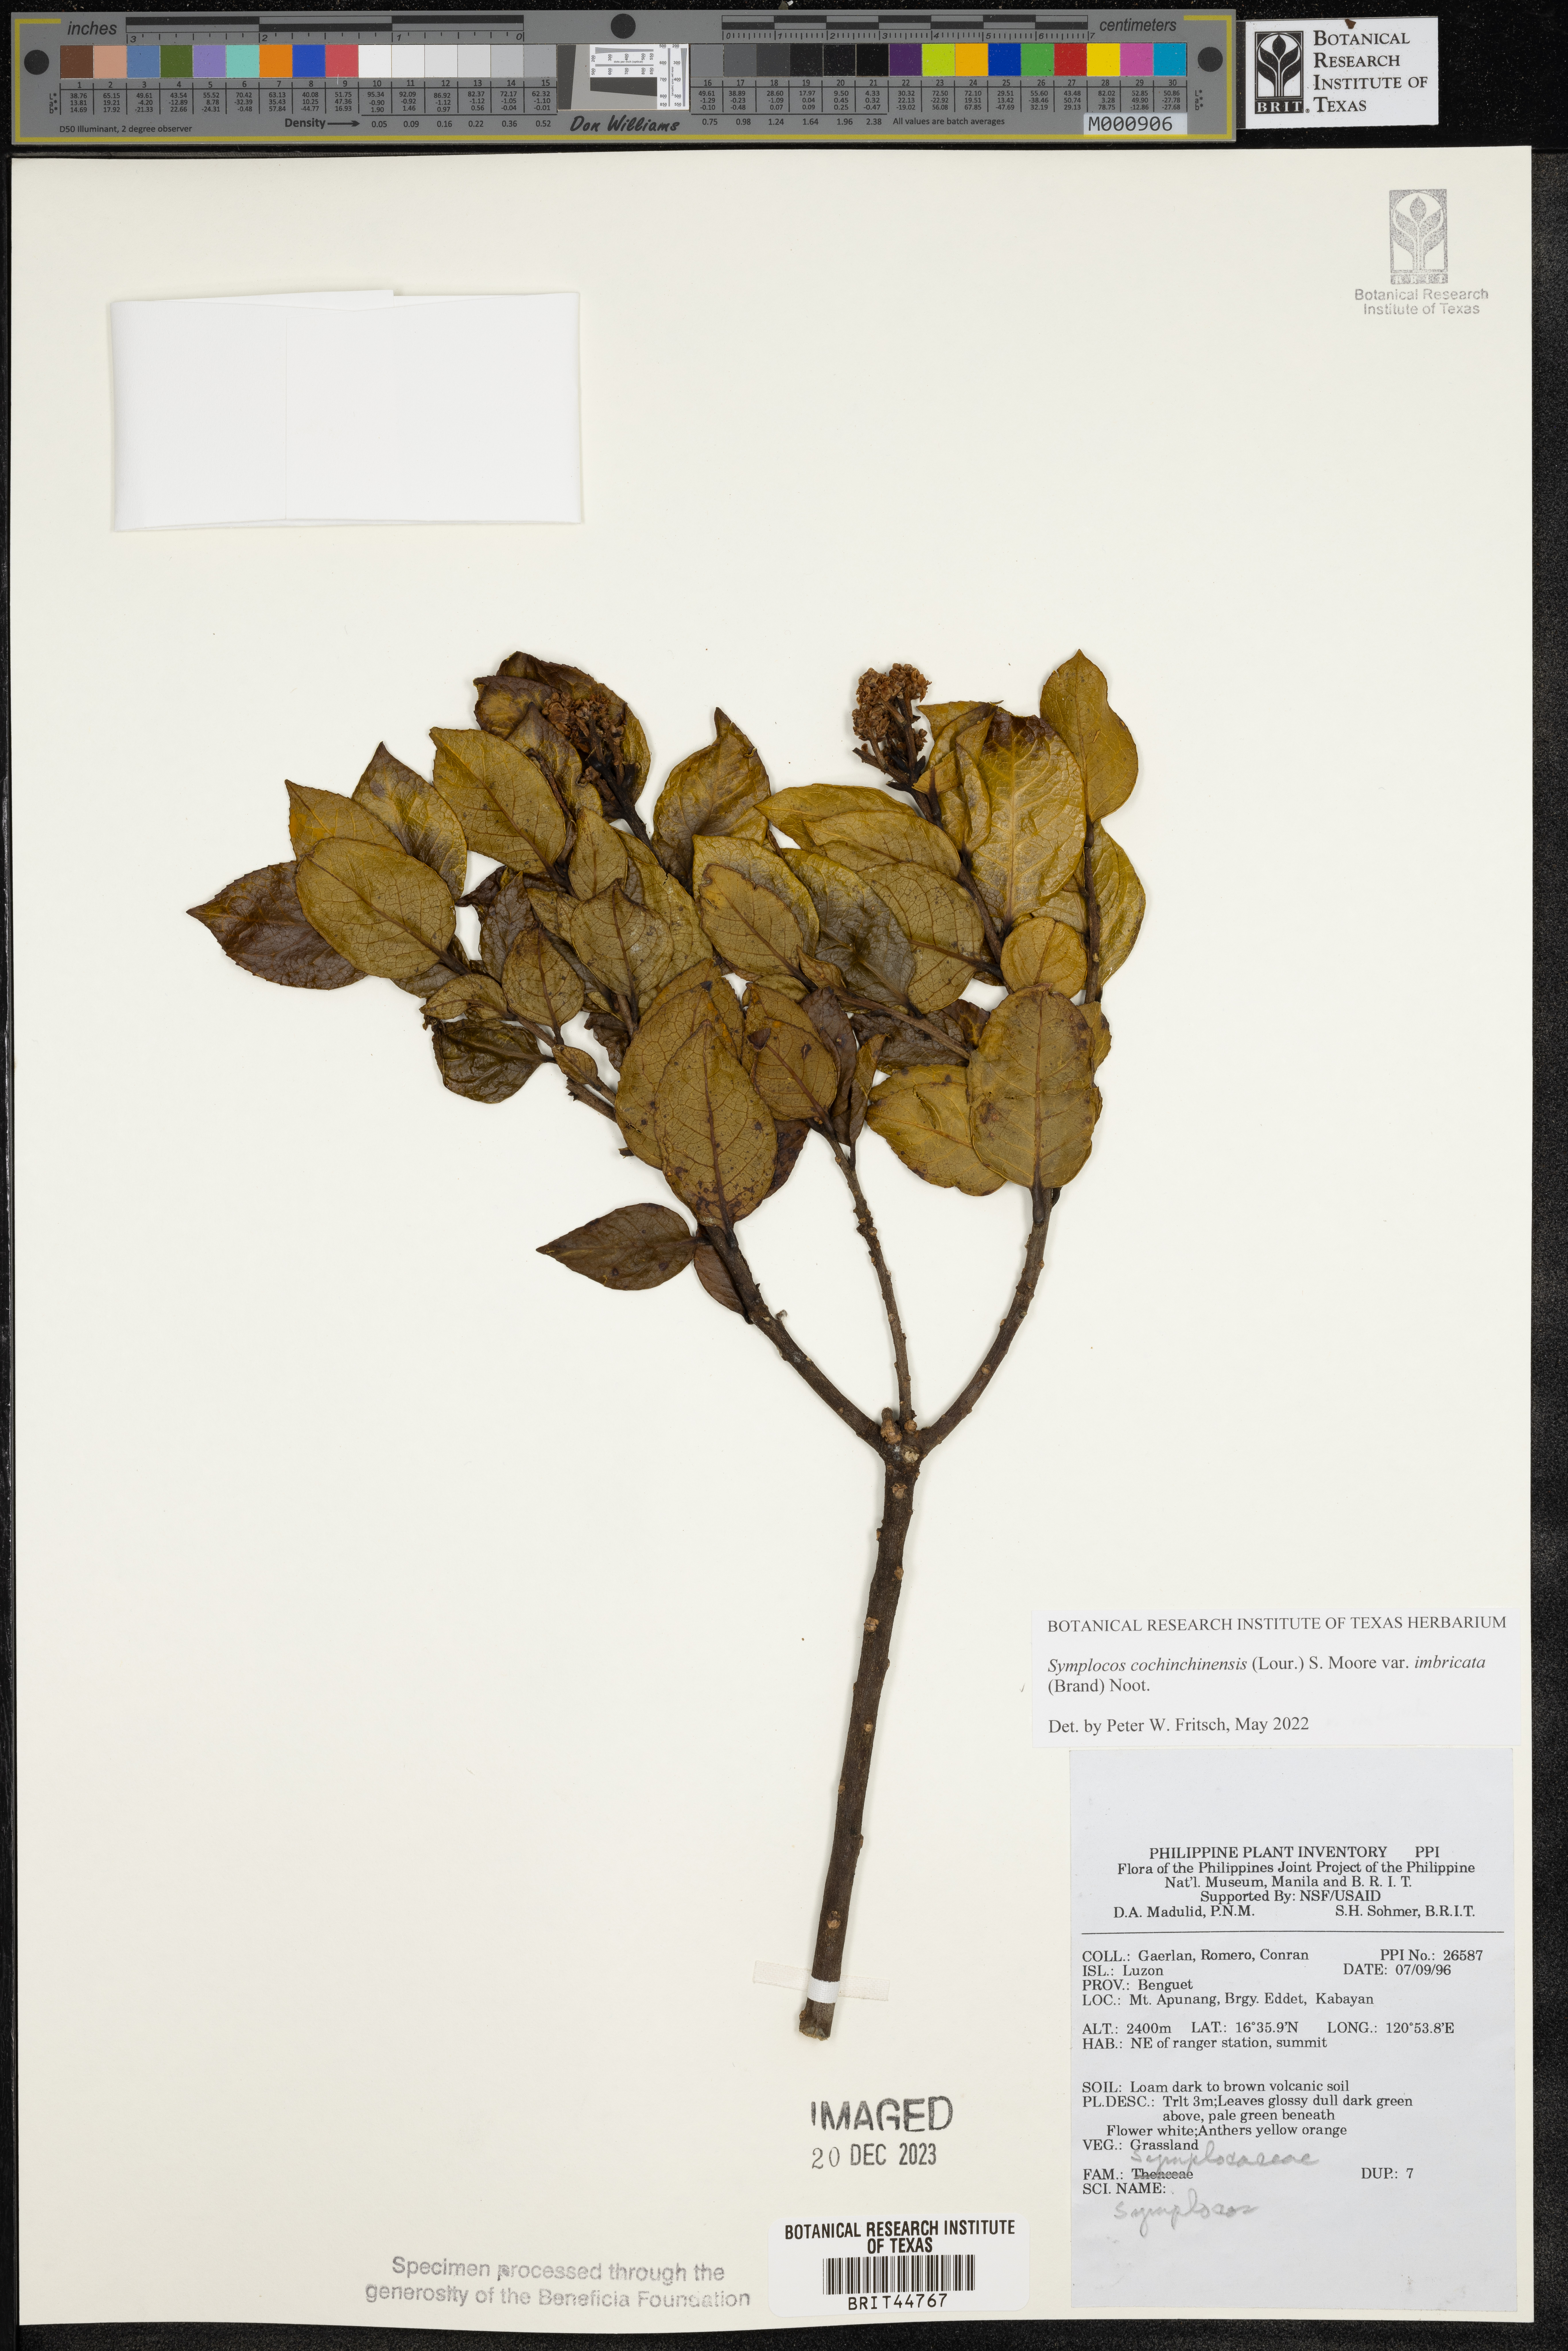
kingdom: Plantae
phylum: Tracheophyta
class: Magnoliopsida
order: Ericales
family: Symplocaceae
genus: Symplocos
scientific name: Symplocos imbricata
